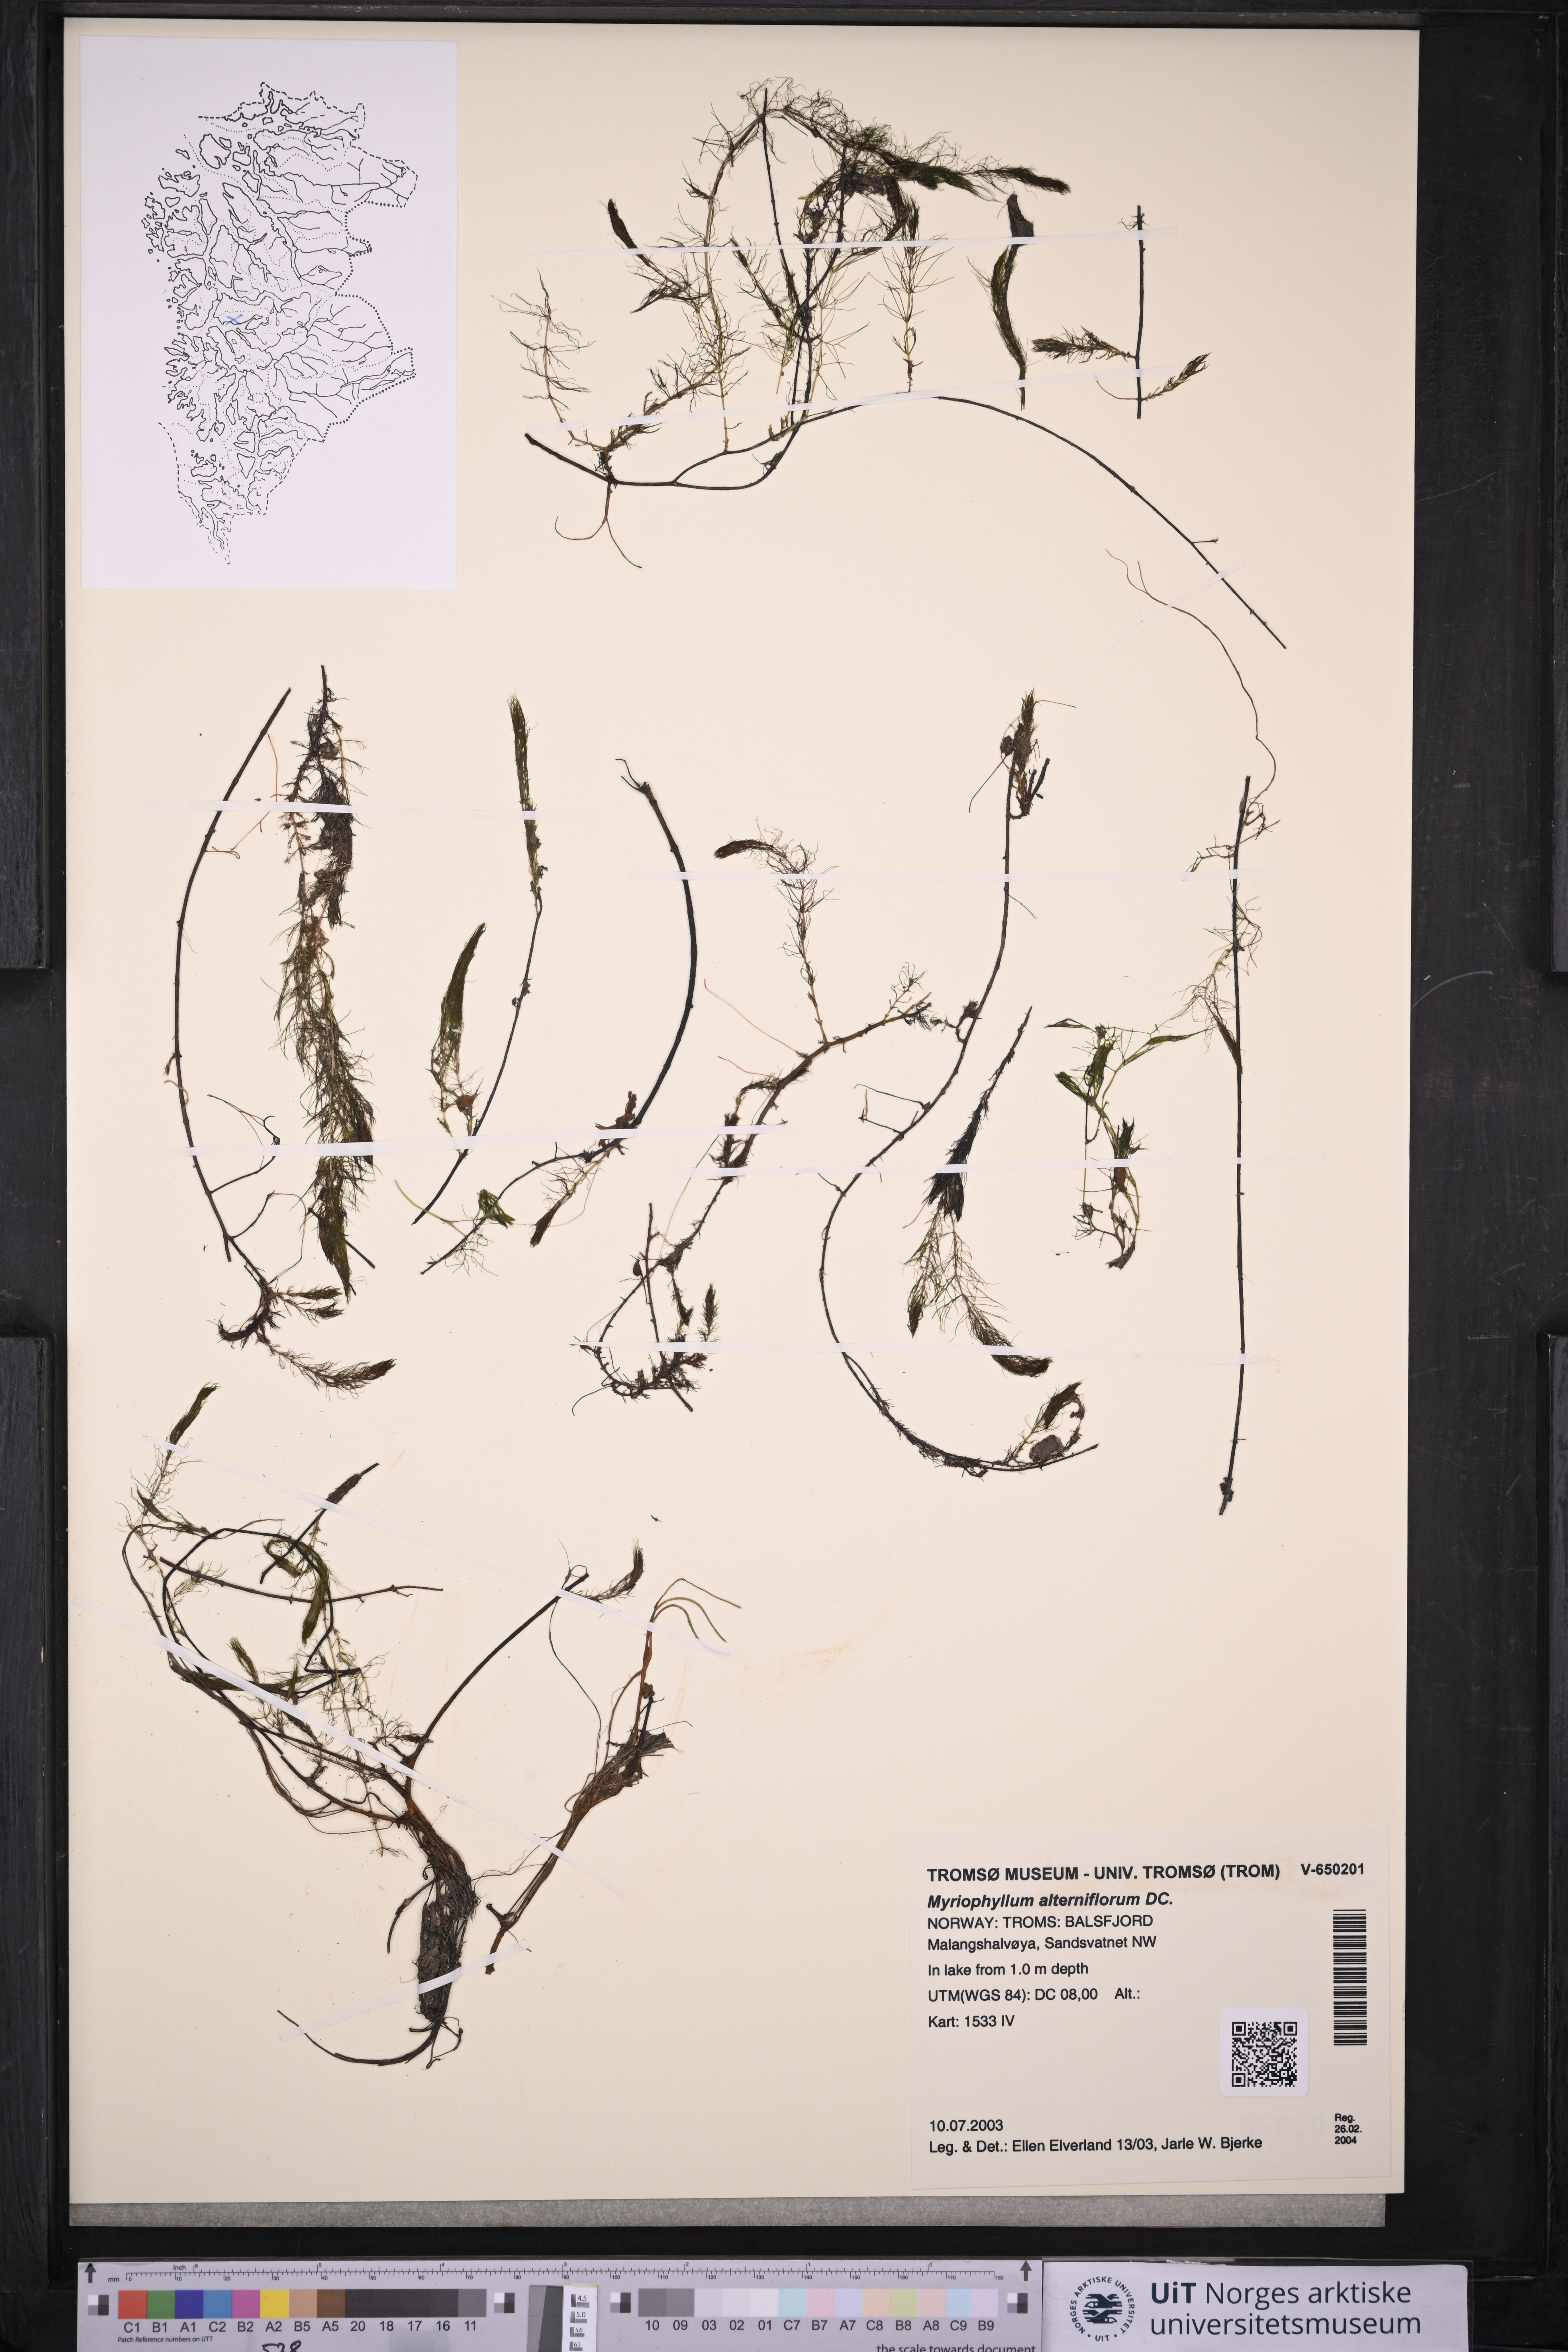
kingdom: Plantae
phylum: Tracheophyta
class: Magnoliopsida
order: Saxifragales
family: Haloragaceae
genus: Myriophyllum
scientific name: Myriophyllum alterniflorum
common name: Alternate water-milfoil
